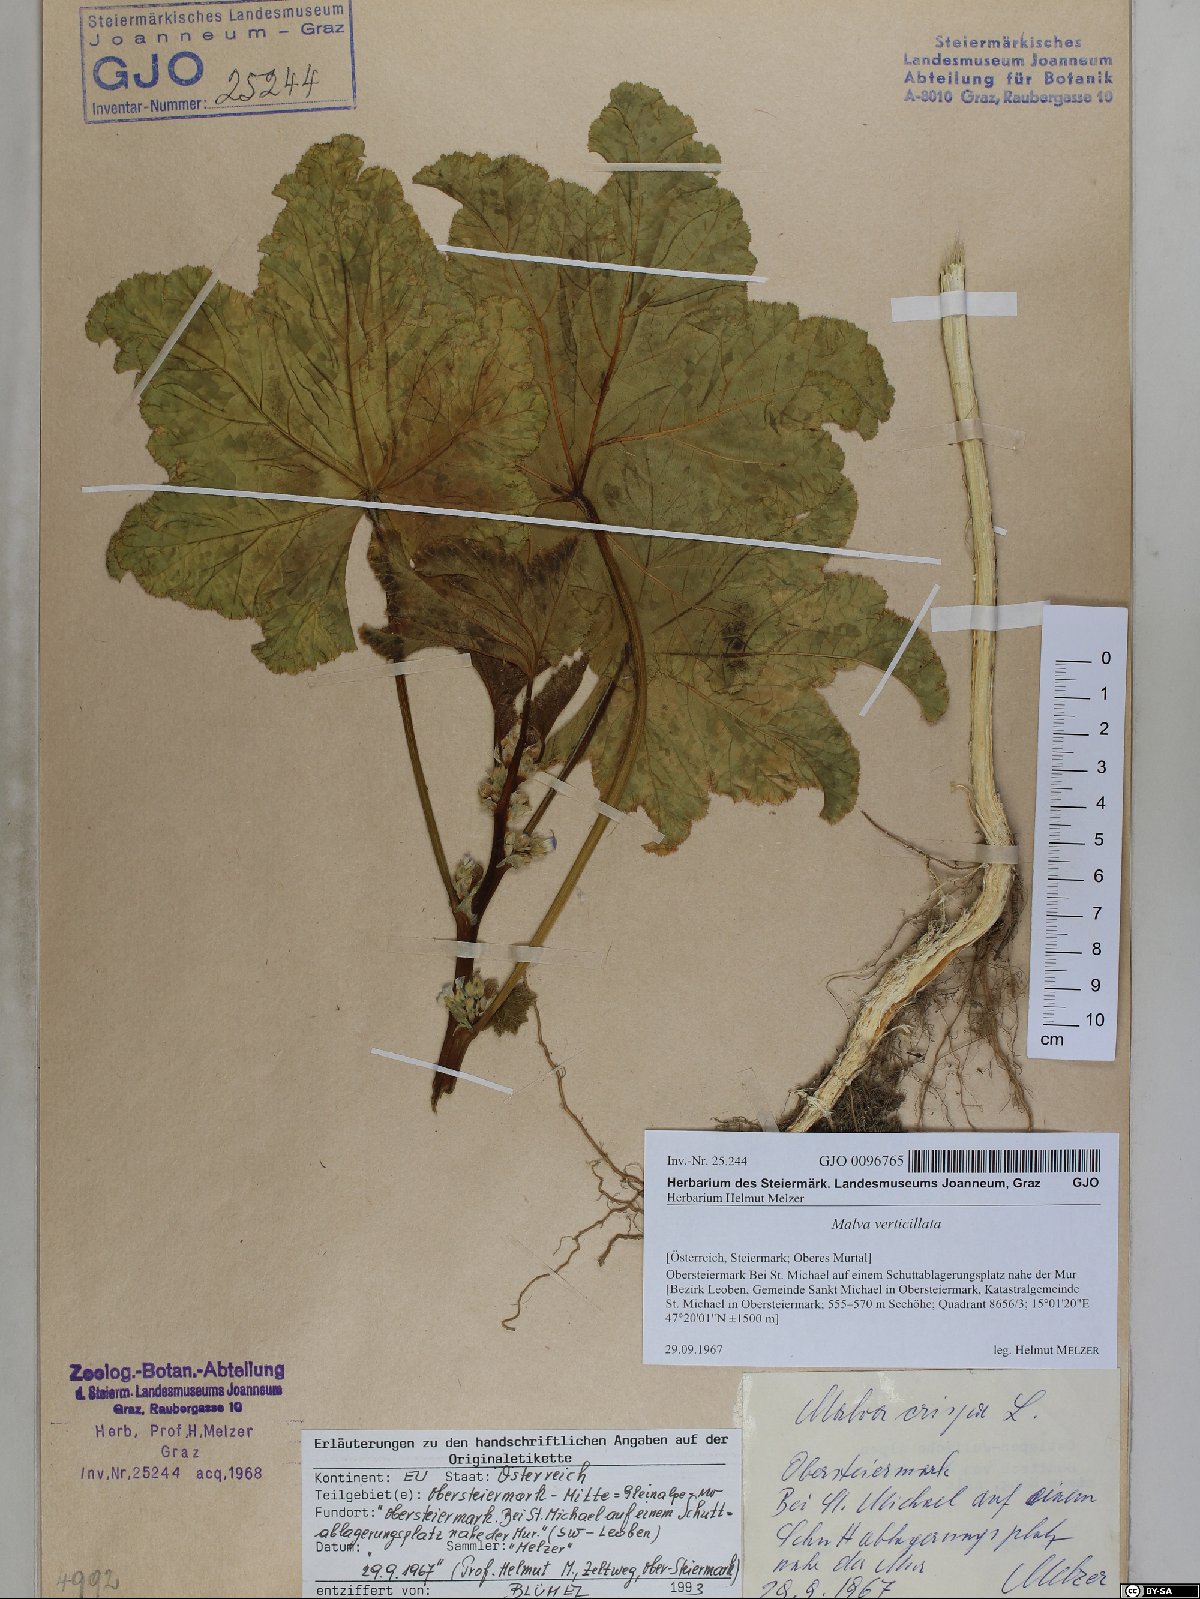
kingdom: Plantae
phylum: Tracheophyta
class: Magnoliopsida
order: Malvales
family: Malvaceae
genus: Malva
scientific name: Malva verticillata
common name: Chinese mallow
